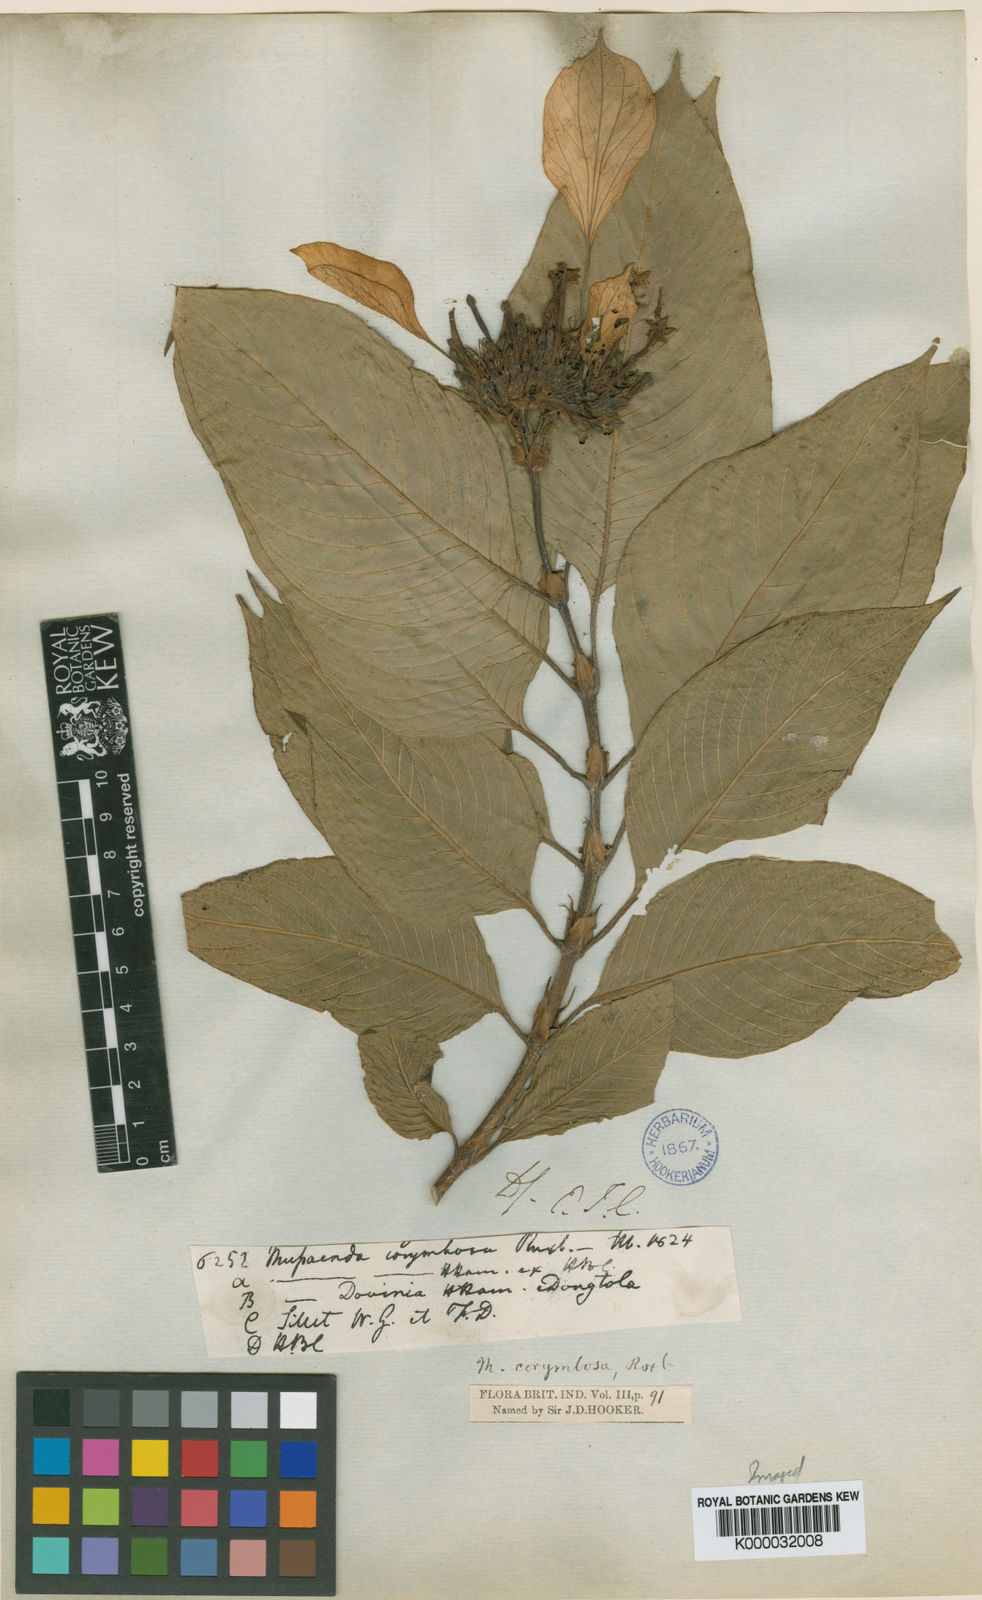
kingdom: Plantae
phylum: Tracheophyta
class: Magnoliopsida
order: Gentianales
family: Rubiaceae
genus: Mussaenda
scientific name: Mussaenda corymbosa
